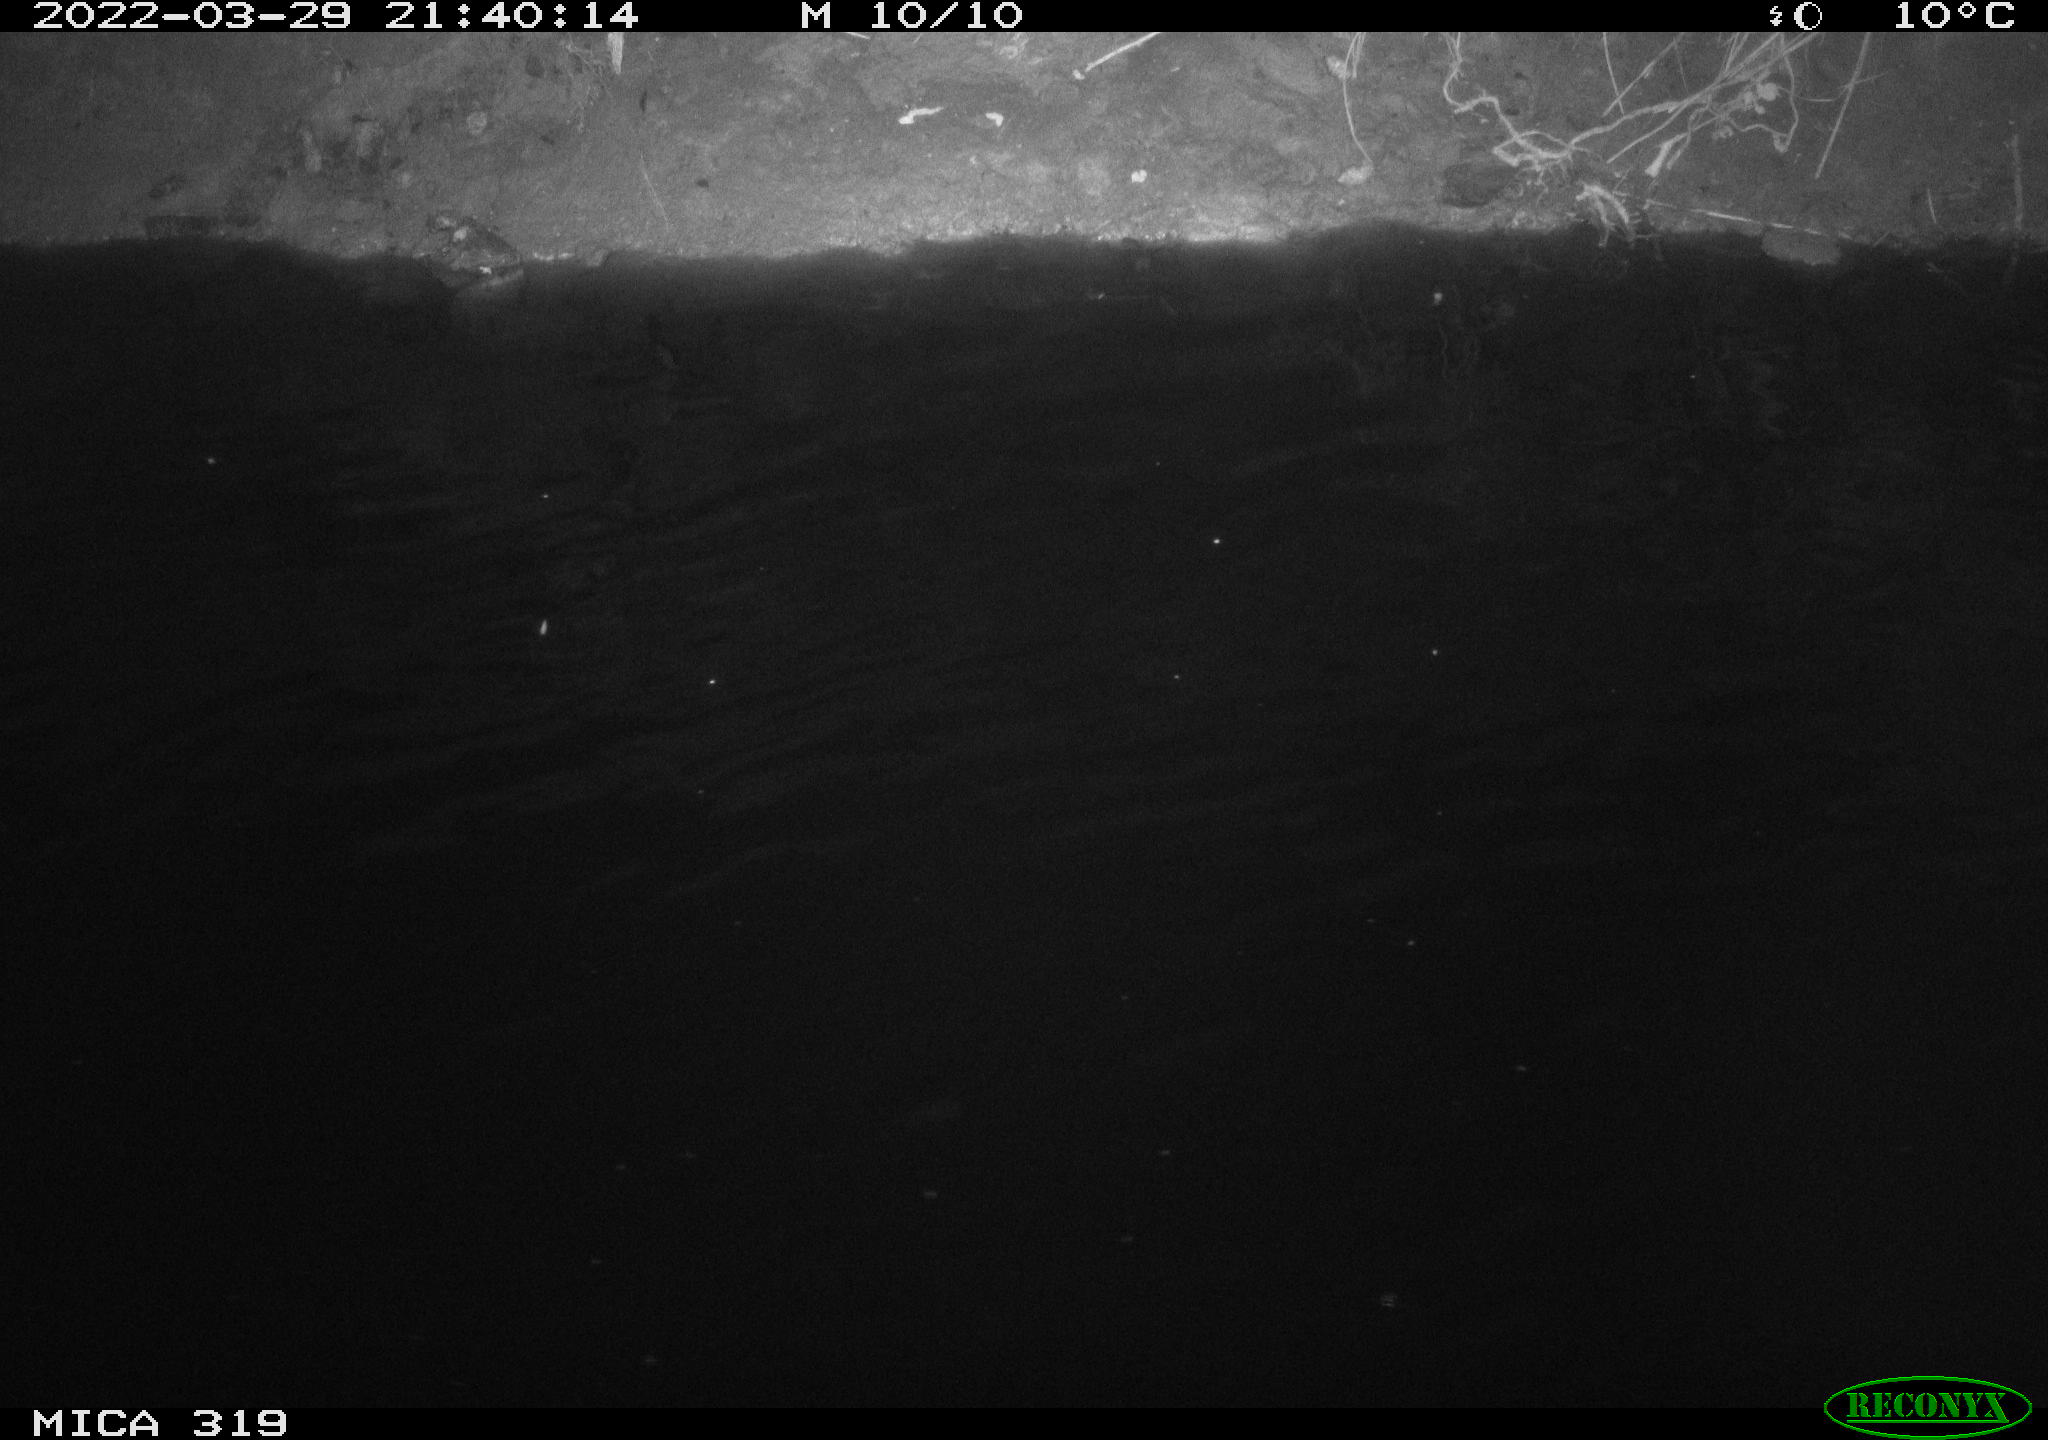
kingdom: Animalia
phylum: Chordata
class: Aves
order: Anseriformes
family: Anatidae
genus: Anas
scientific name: Anas platyrhynchos
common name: Mallard
